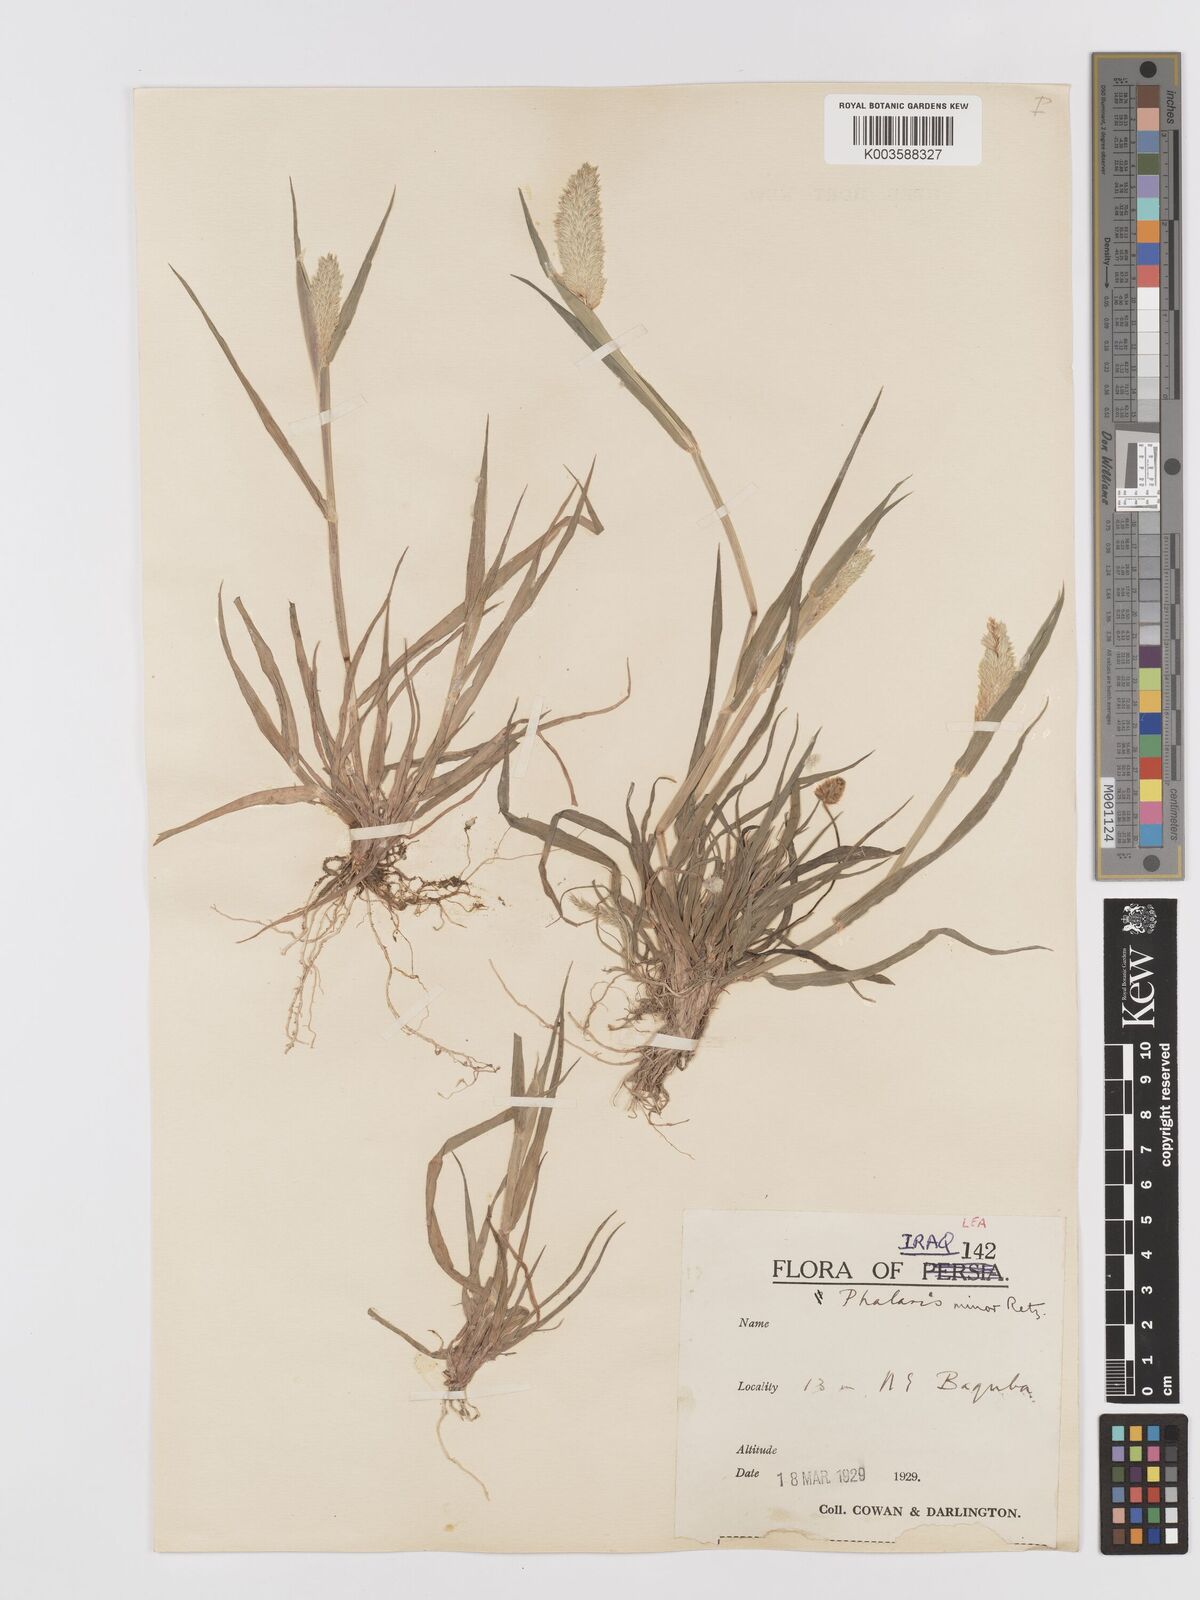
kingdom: Plantae
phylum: Tracheophyta
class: Liliopsida
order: Poales
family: Poaceae
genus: Phalaris
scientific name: Phalaris minor
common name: Littleseed canarygrass
